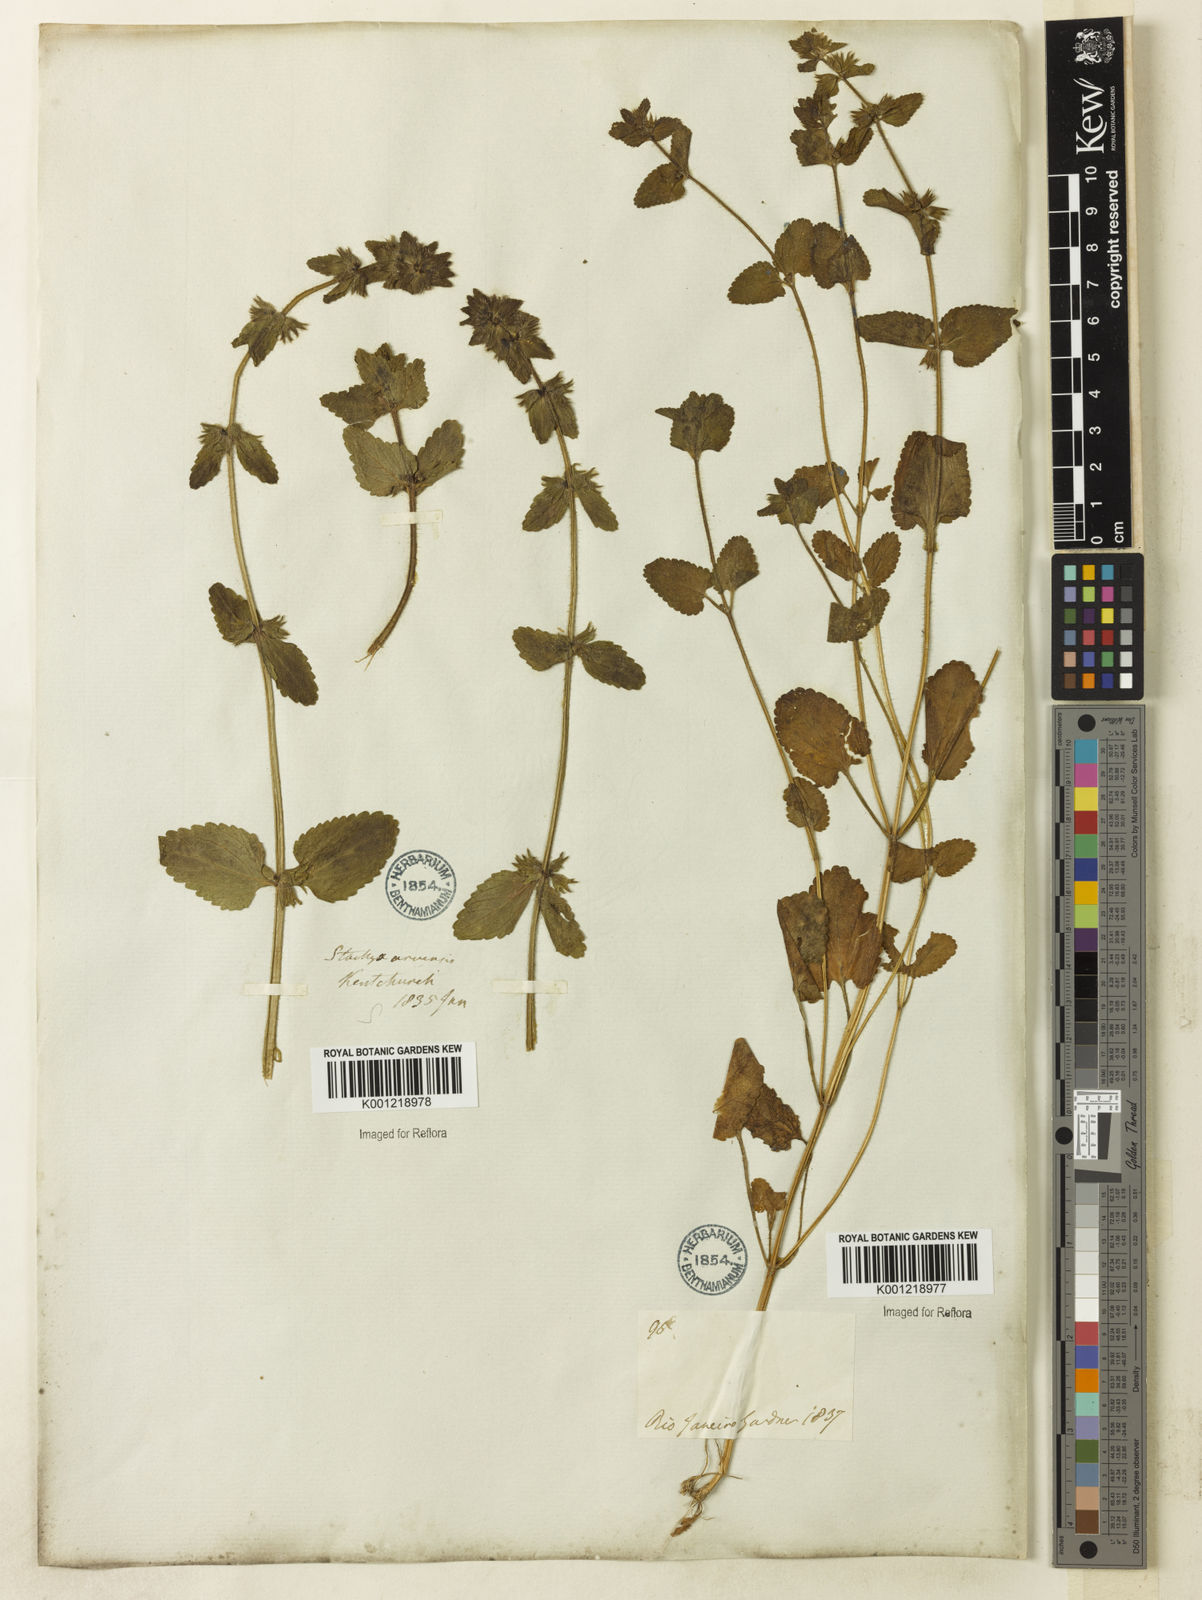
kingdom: Plantae
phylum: Tracheophyta
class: Magnoliopsida
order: Lamiales
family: Lamiaceae
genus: Stachys
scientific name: Stachys arvensis
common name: Field woundwort
